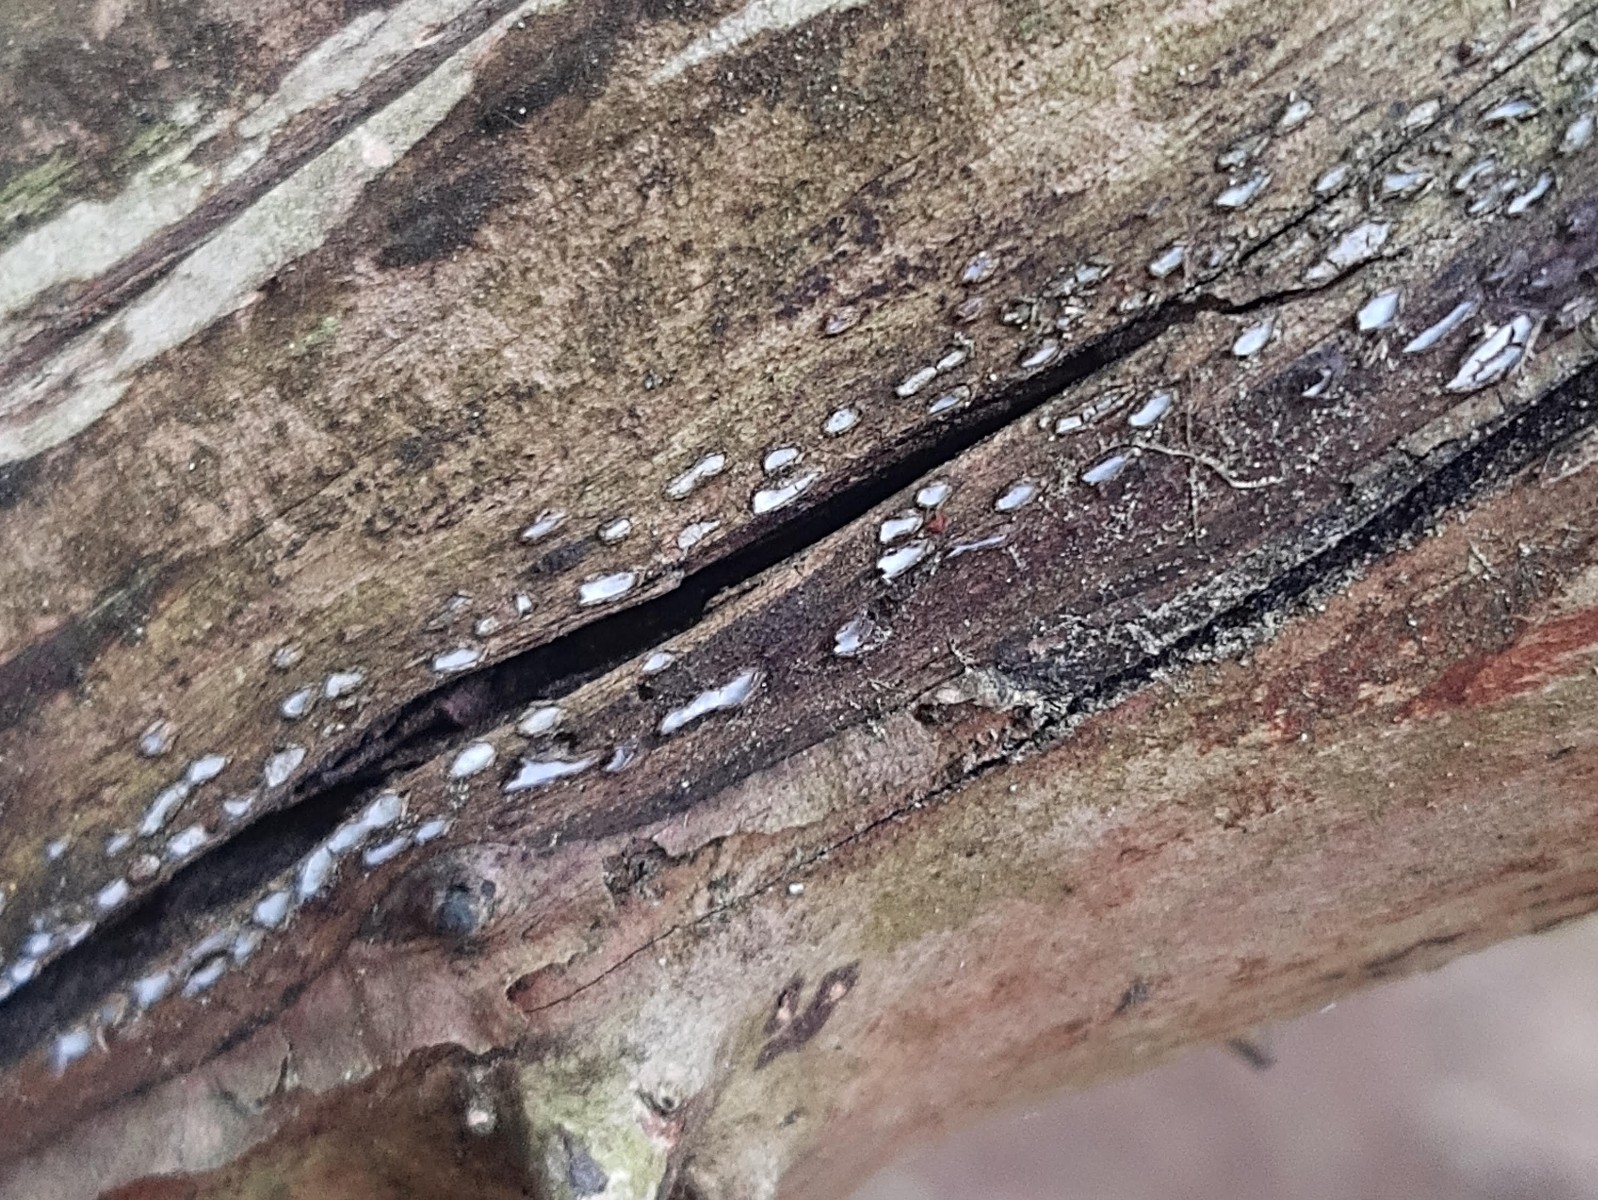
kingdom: Fungi
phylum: Ascomycota
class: Leotiomycetes
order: Chaetomellales
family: Marthamycetaceae
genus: Propolis
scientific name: Propolis farinosa
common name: almindelig vedsprængerskive
